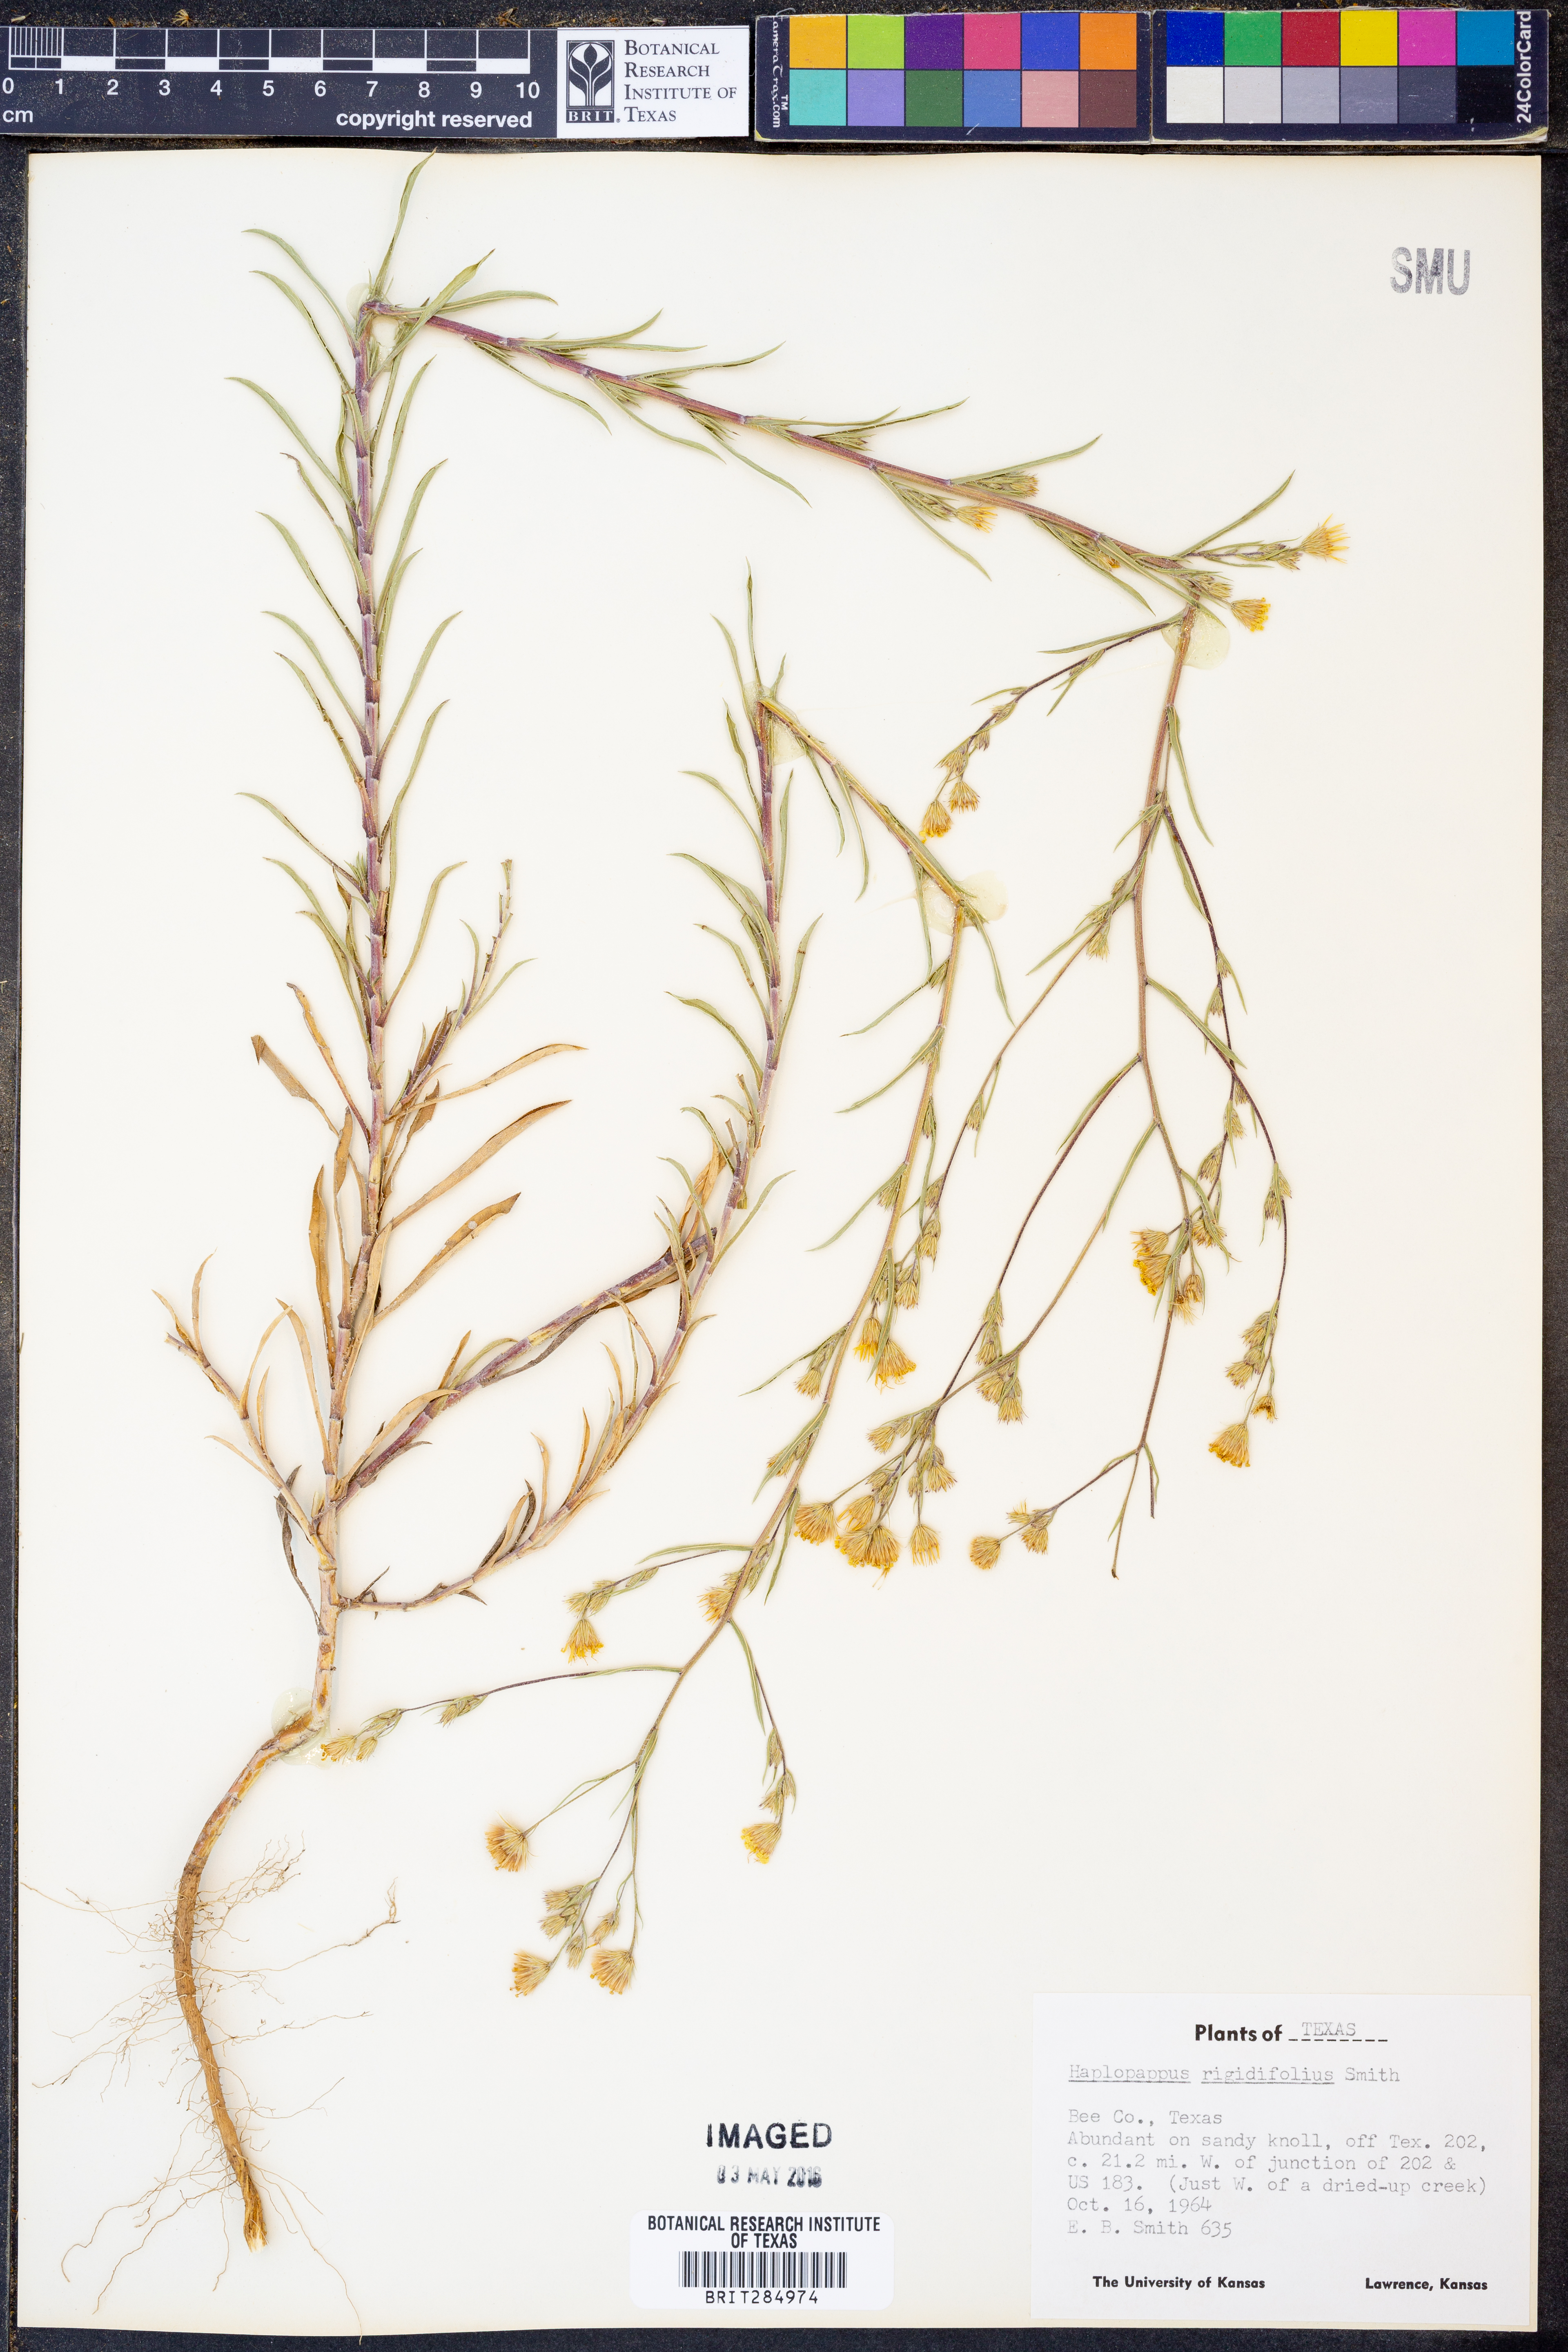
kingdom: Plantae
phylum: Tracheophyta
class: Magnoliopsida
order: Asterales
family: Asteraceae
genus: Croptilon
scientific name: Croptilon rigidifolium
